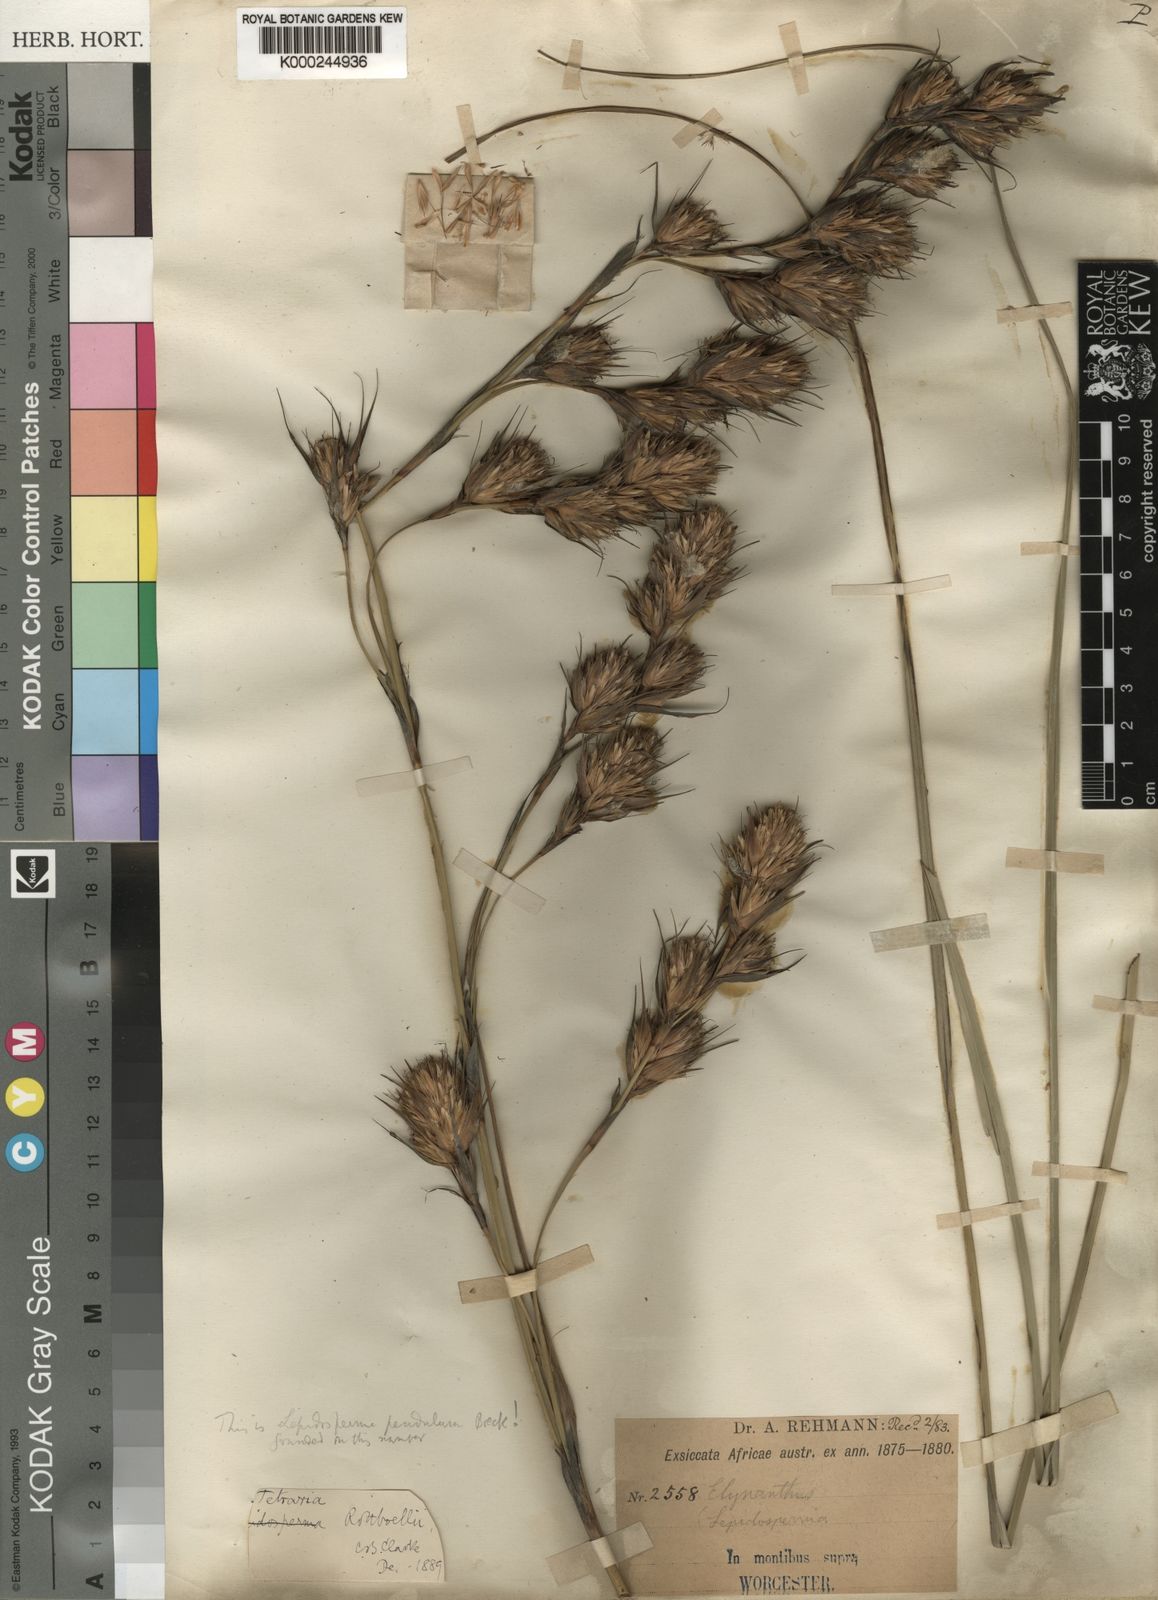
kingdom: Plantae
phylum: Tracheophyta
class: Liliopsida
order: Poales
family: Cyperaceae
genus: Tetraria
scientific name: Tetraria bromoides
